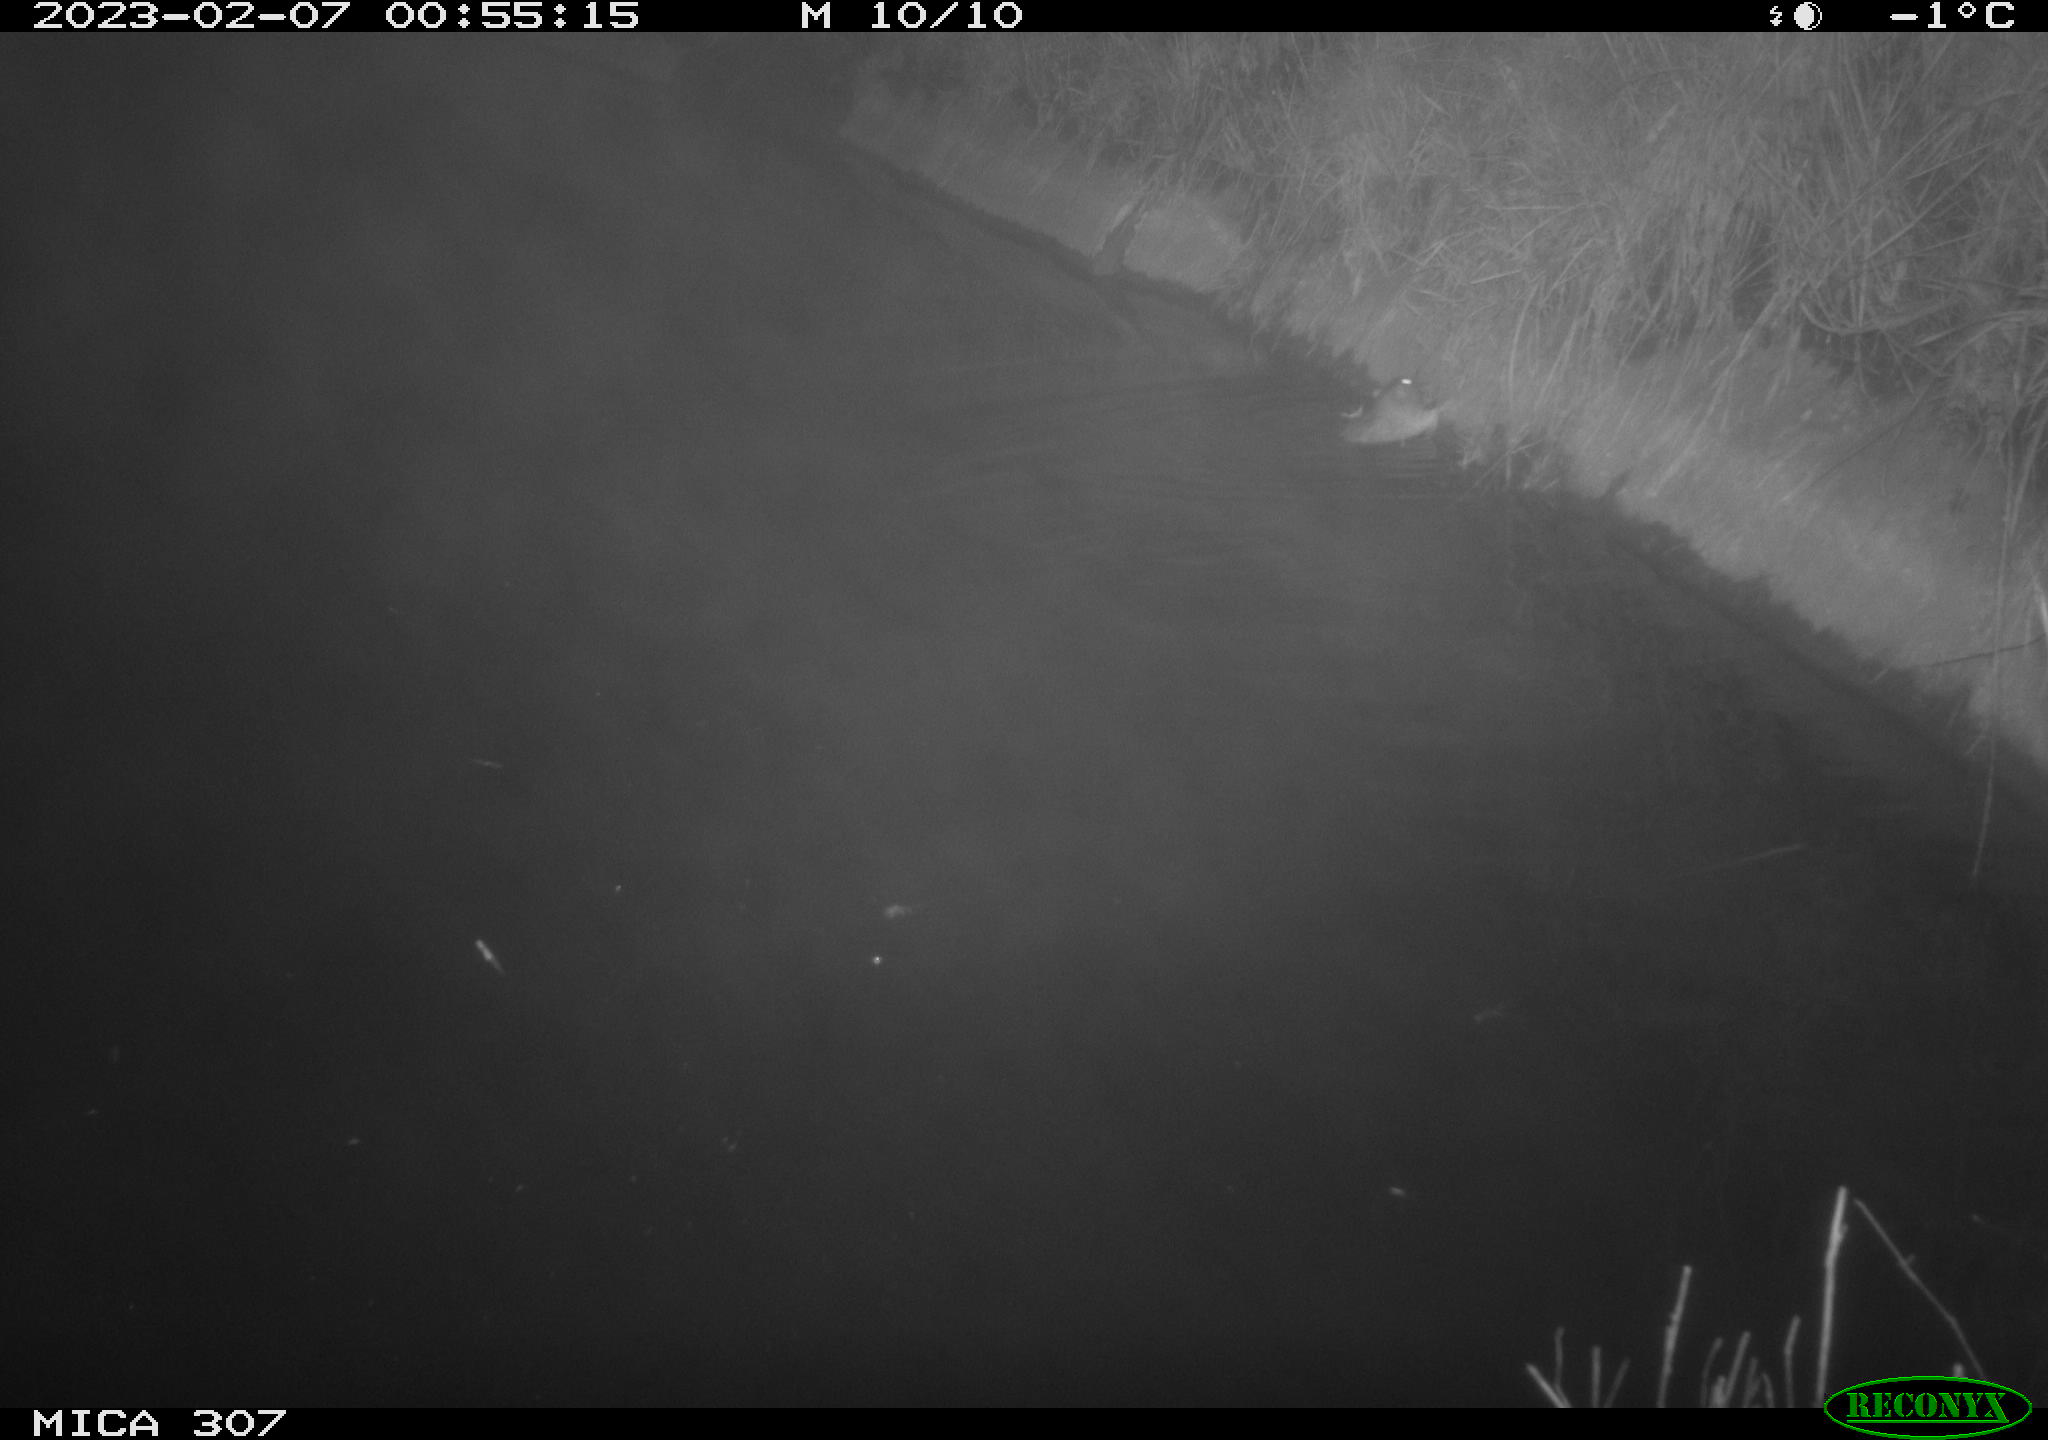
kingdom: Animalia
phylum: Chordata
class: Mammalia
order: Rodentia
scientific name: Rodentia
